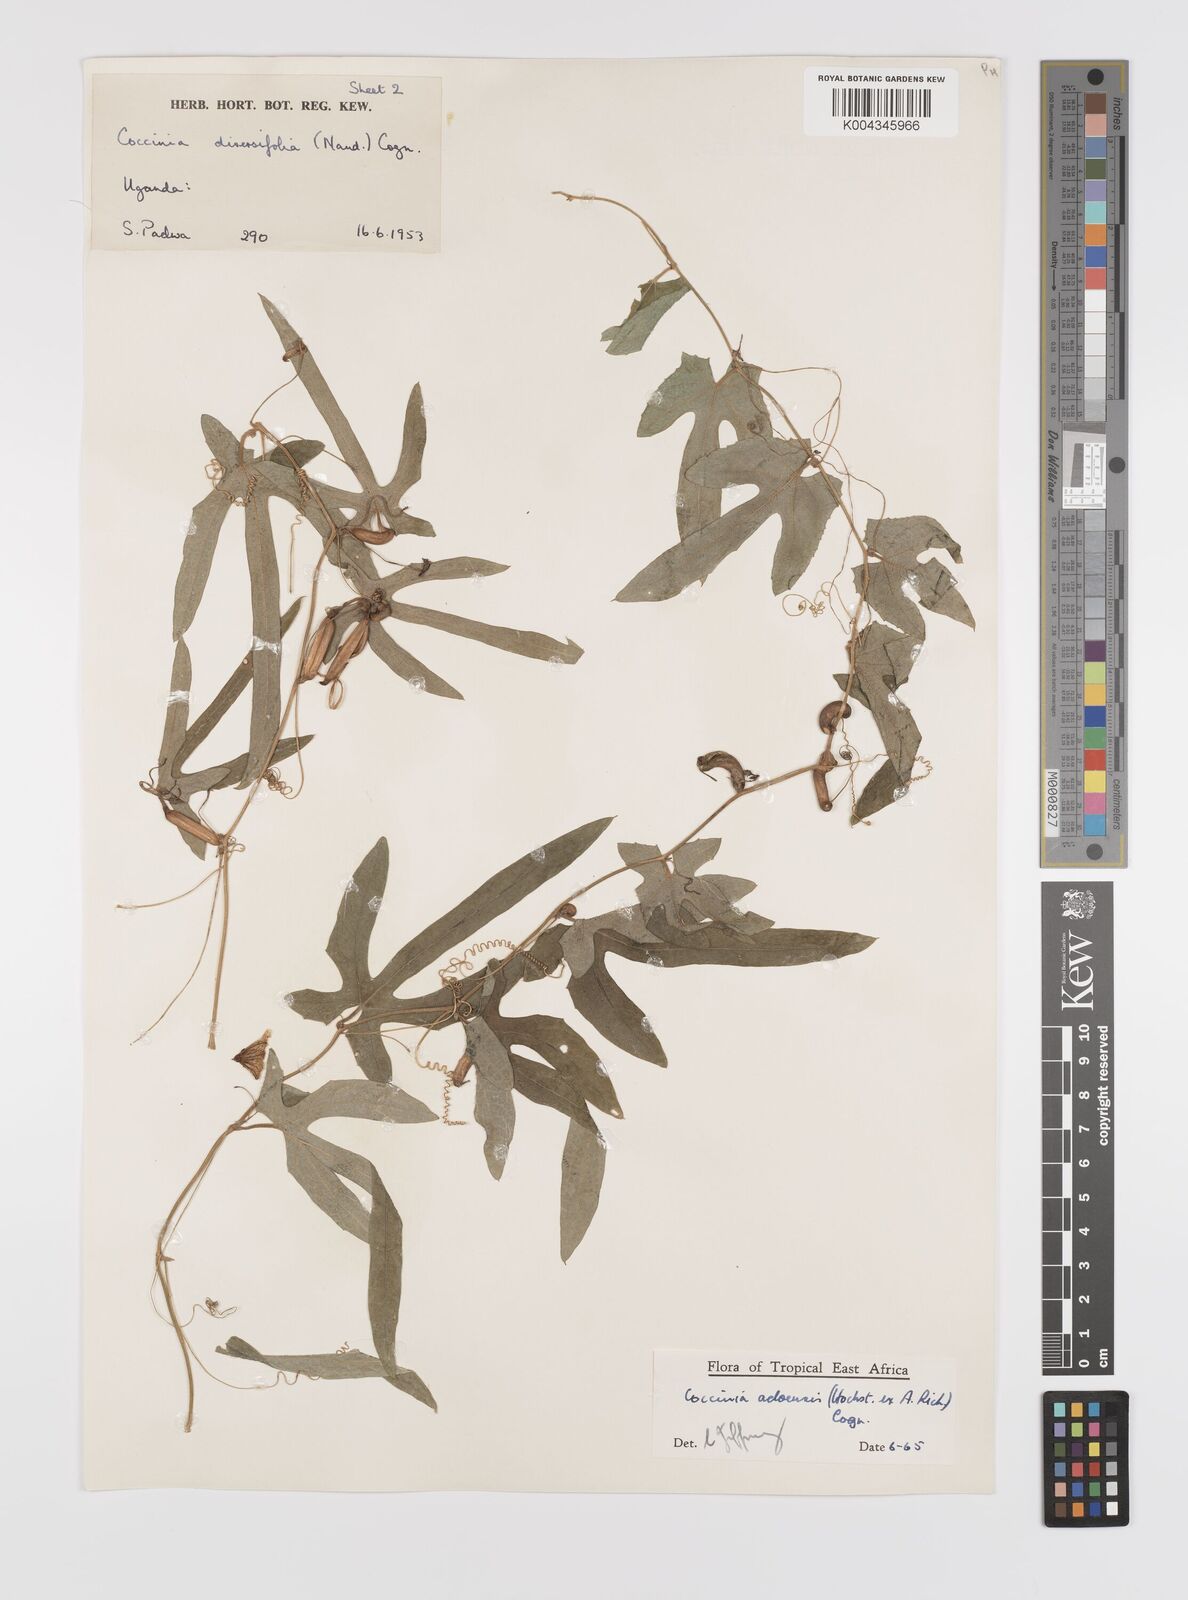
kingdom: Plantae
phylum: Tracheophyta
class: Magnoliopsida
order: Cucurbitales
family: Cucurbitaceae
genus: Coccinia
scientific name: Coccinia adoensis
